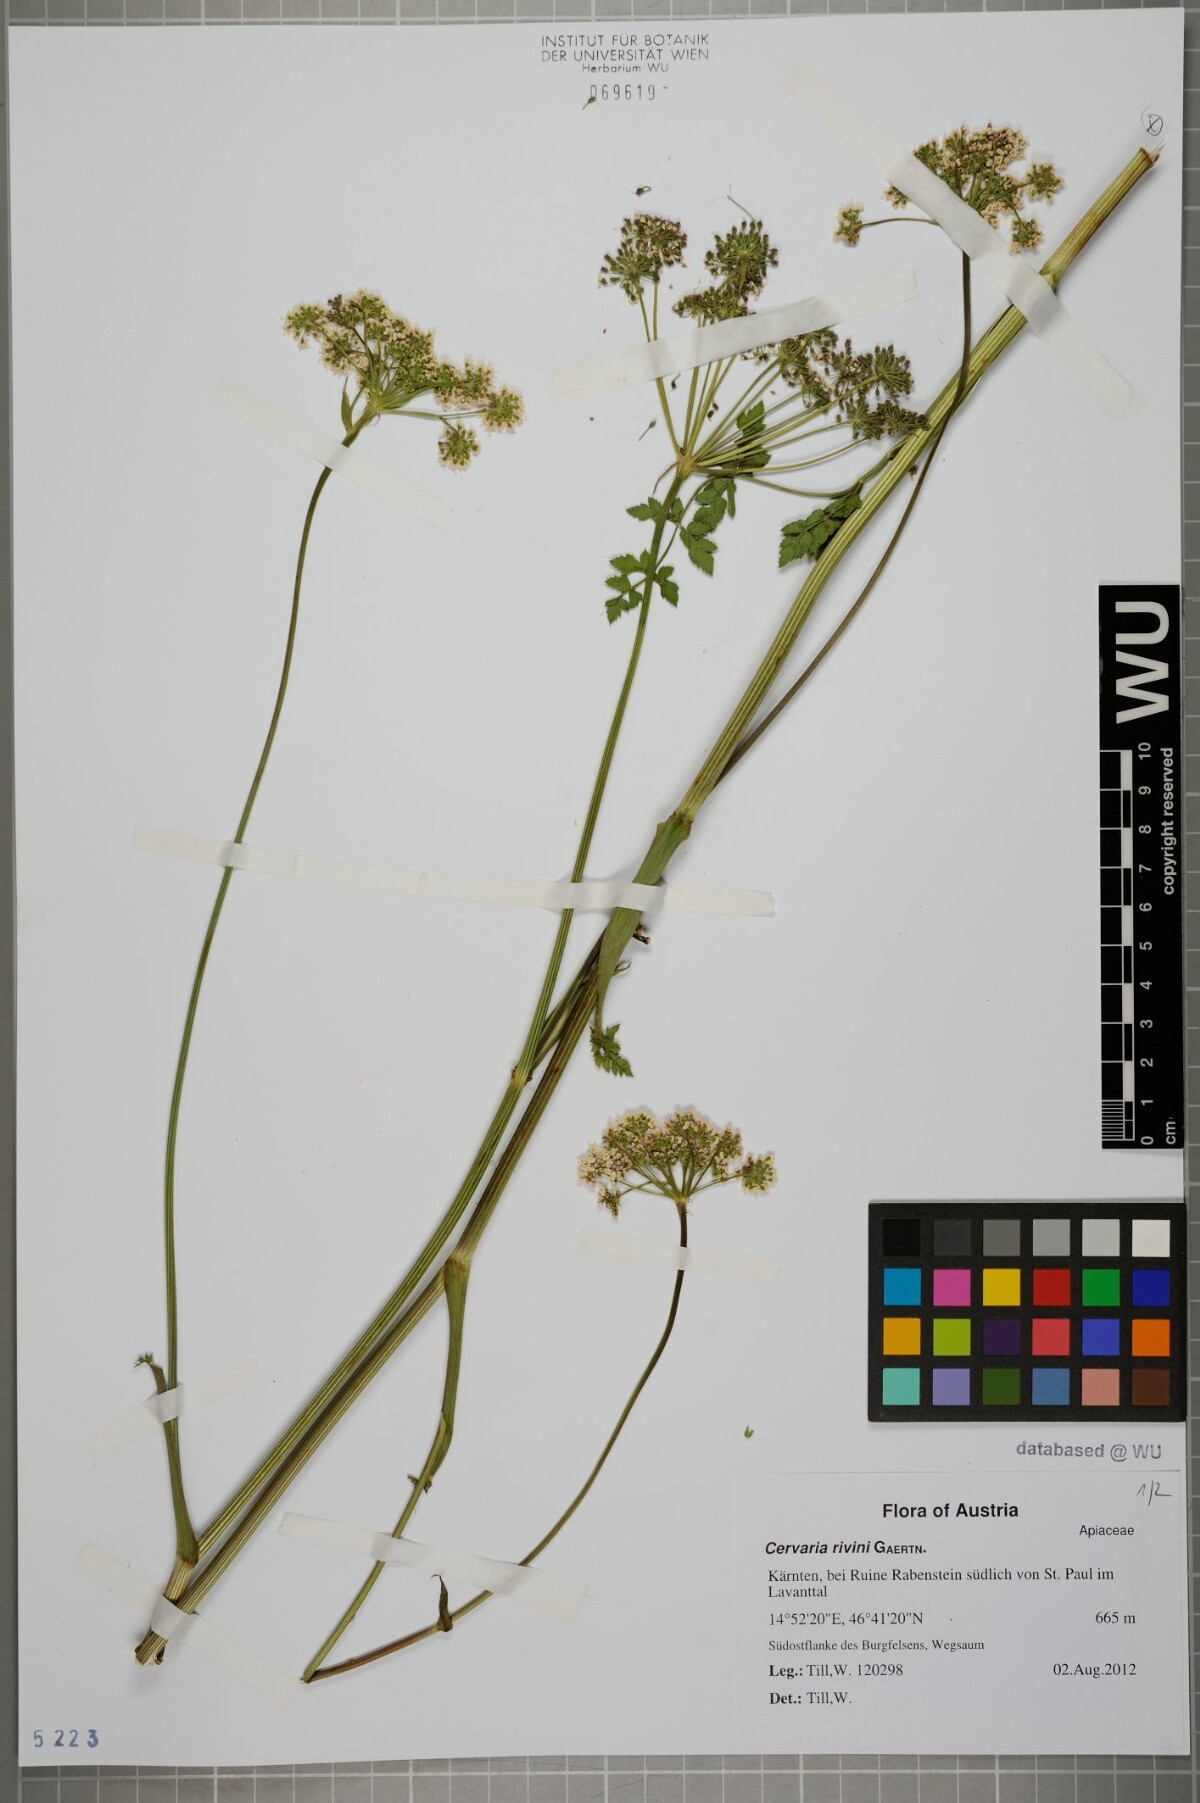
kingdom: Plantae
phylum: Tracheophyta
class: Magnoliopsida
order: Apiales
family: Apiaceae
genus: Cervaria
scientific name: Cervaria rivini
